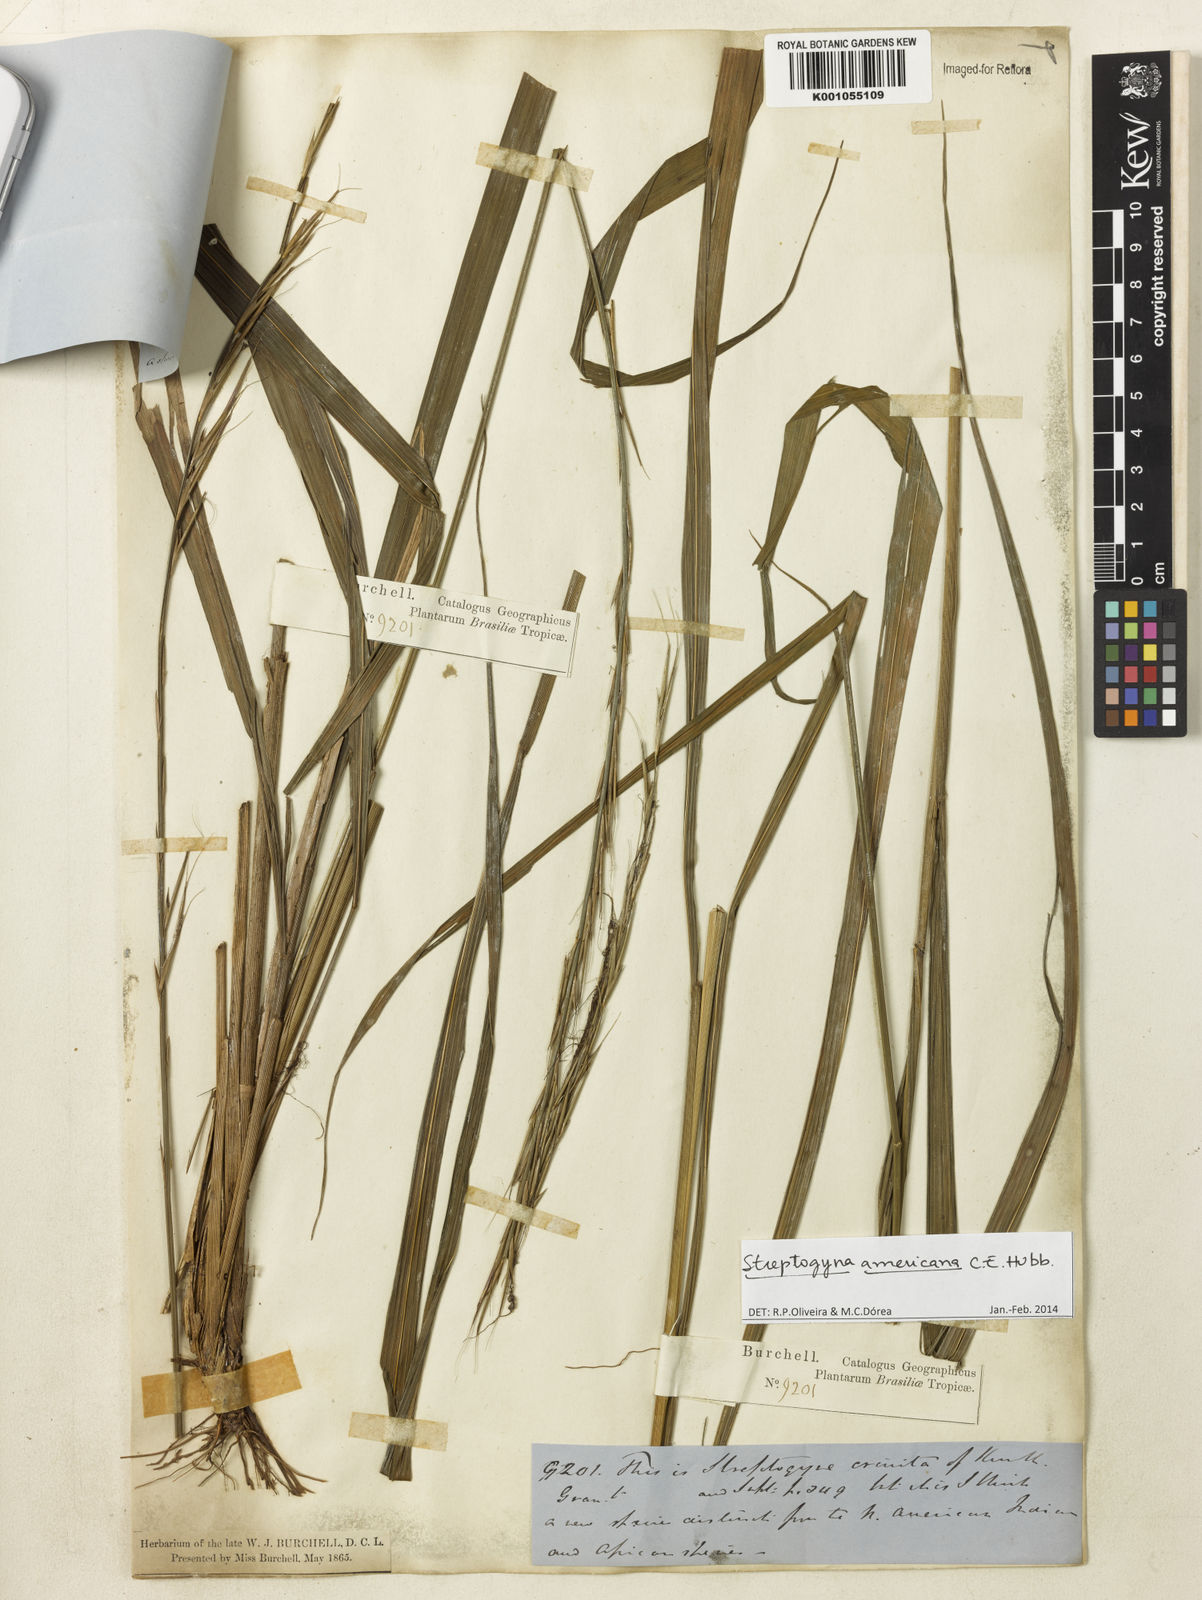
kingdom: Plantae
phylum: Tracheophyta
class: Liliopsida
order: Poales
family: Poaceae
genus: Streptogyna
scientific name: Streptogyna americana
